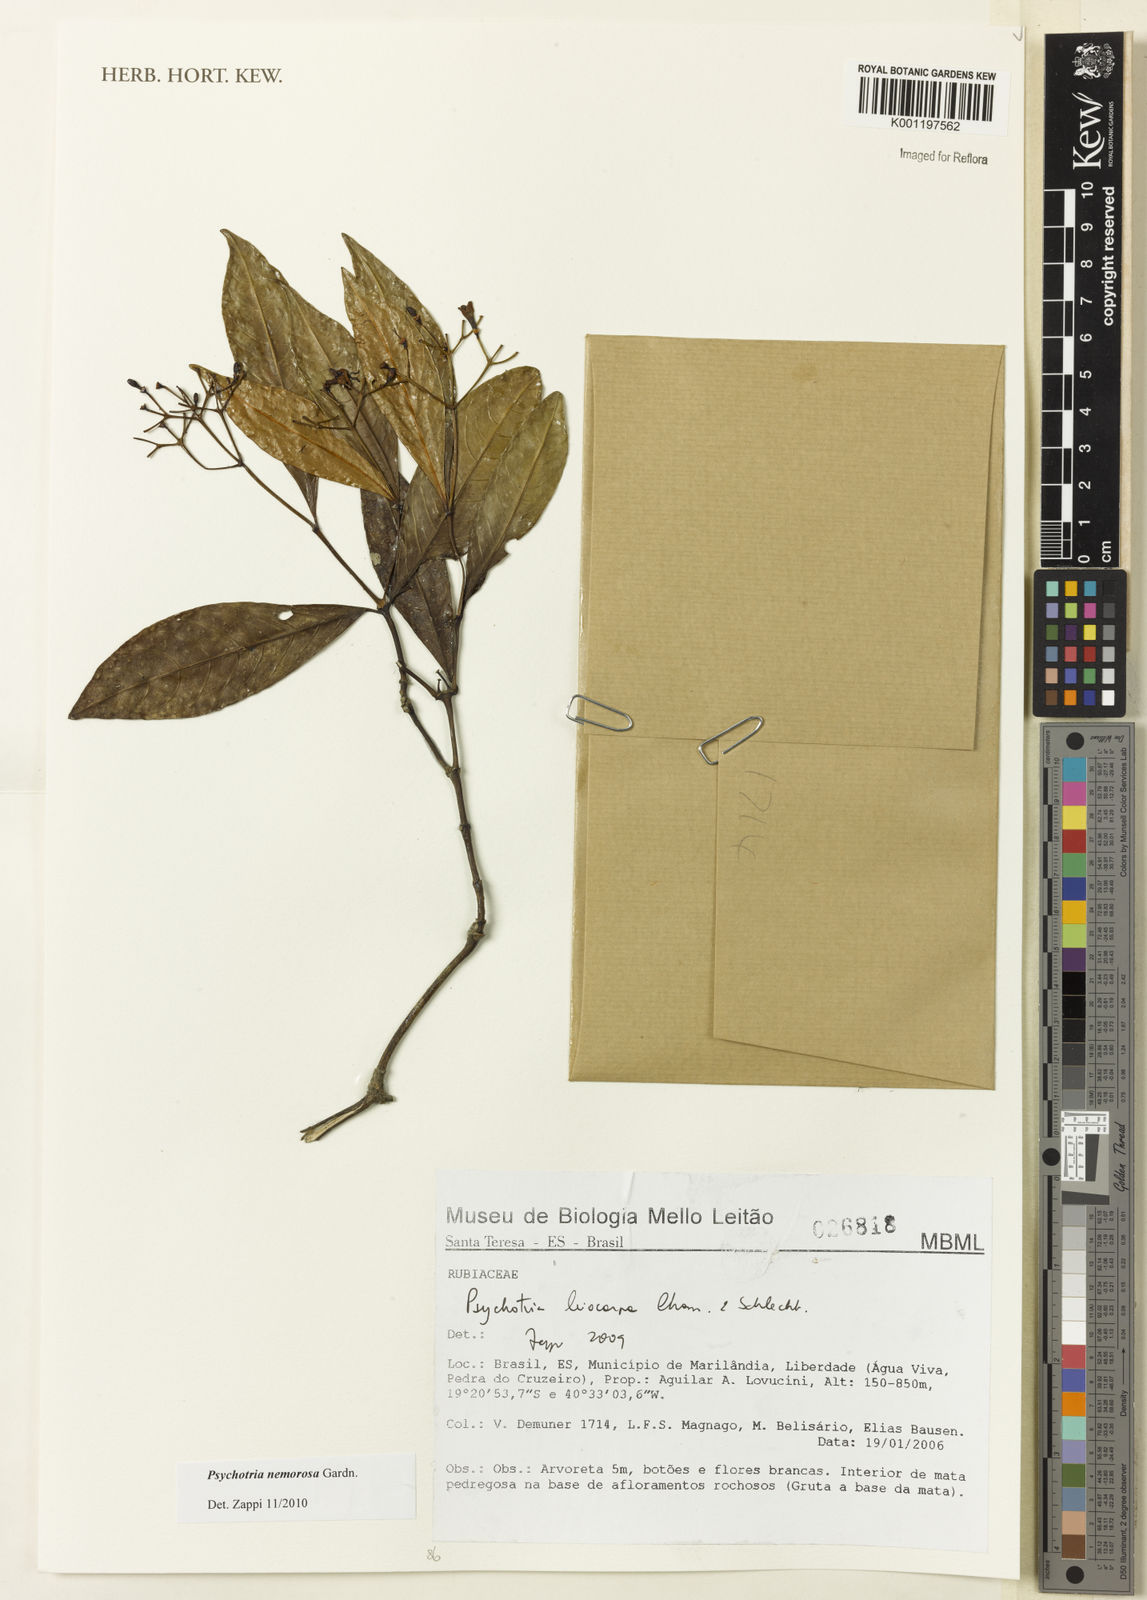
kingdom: Plantae
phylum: Tracheophyta
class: Magnoliopsida
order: Gentianales
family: Rubiaceae
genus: Psychotria
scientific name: Psychotria nemorosa
